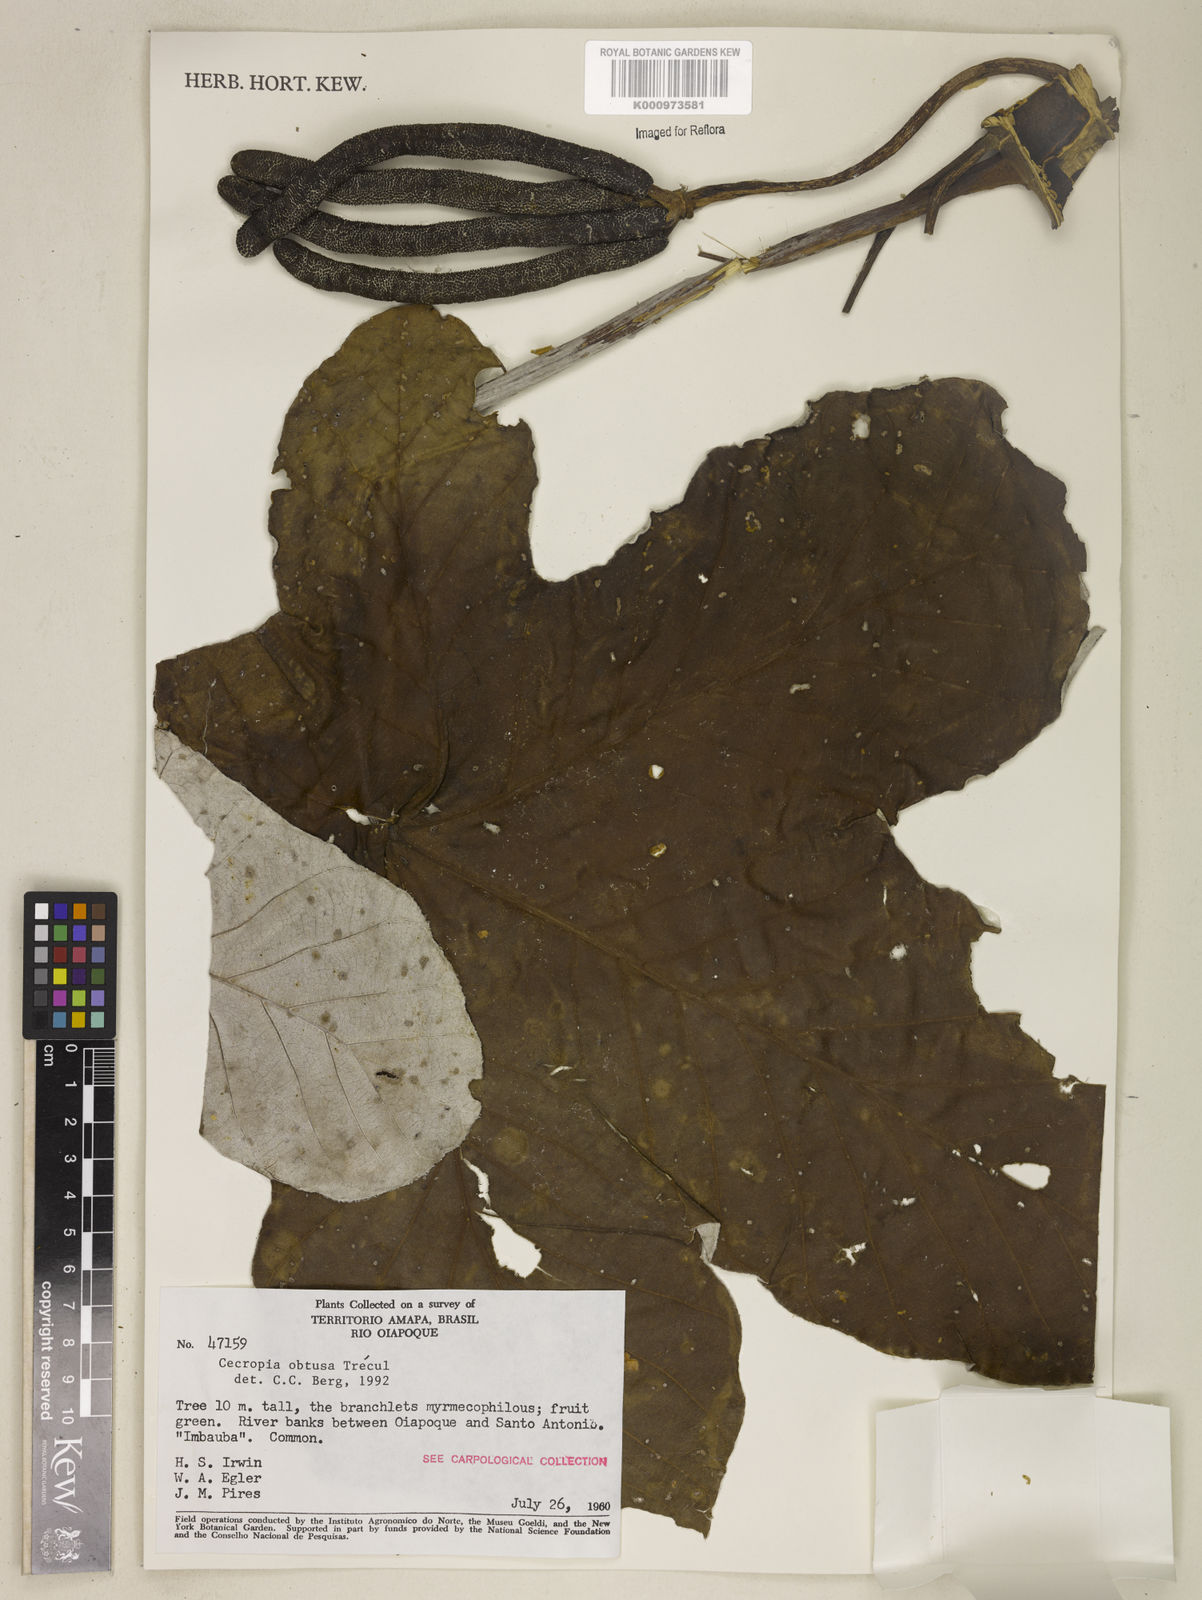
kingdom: Plantae
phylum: Tracheophyta
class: Magnoliopsida
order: Rosales
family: Urticaceae
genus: Cecropia
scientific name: Cecropia
